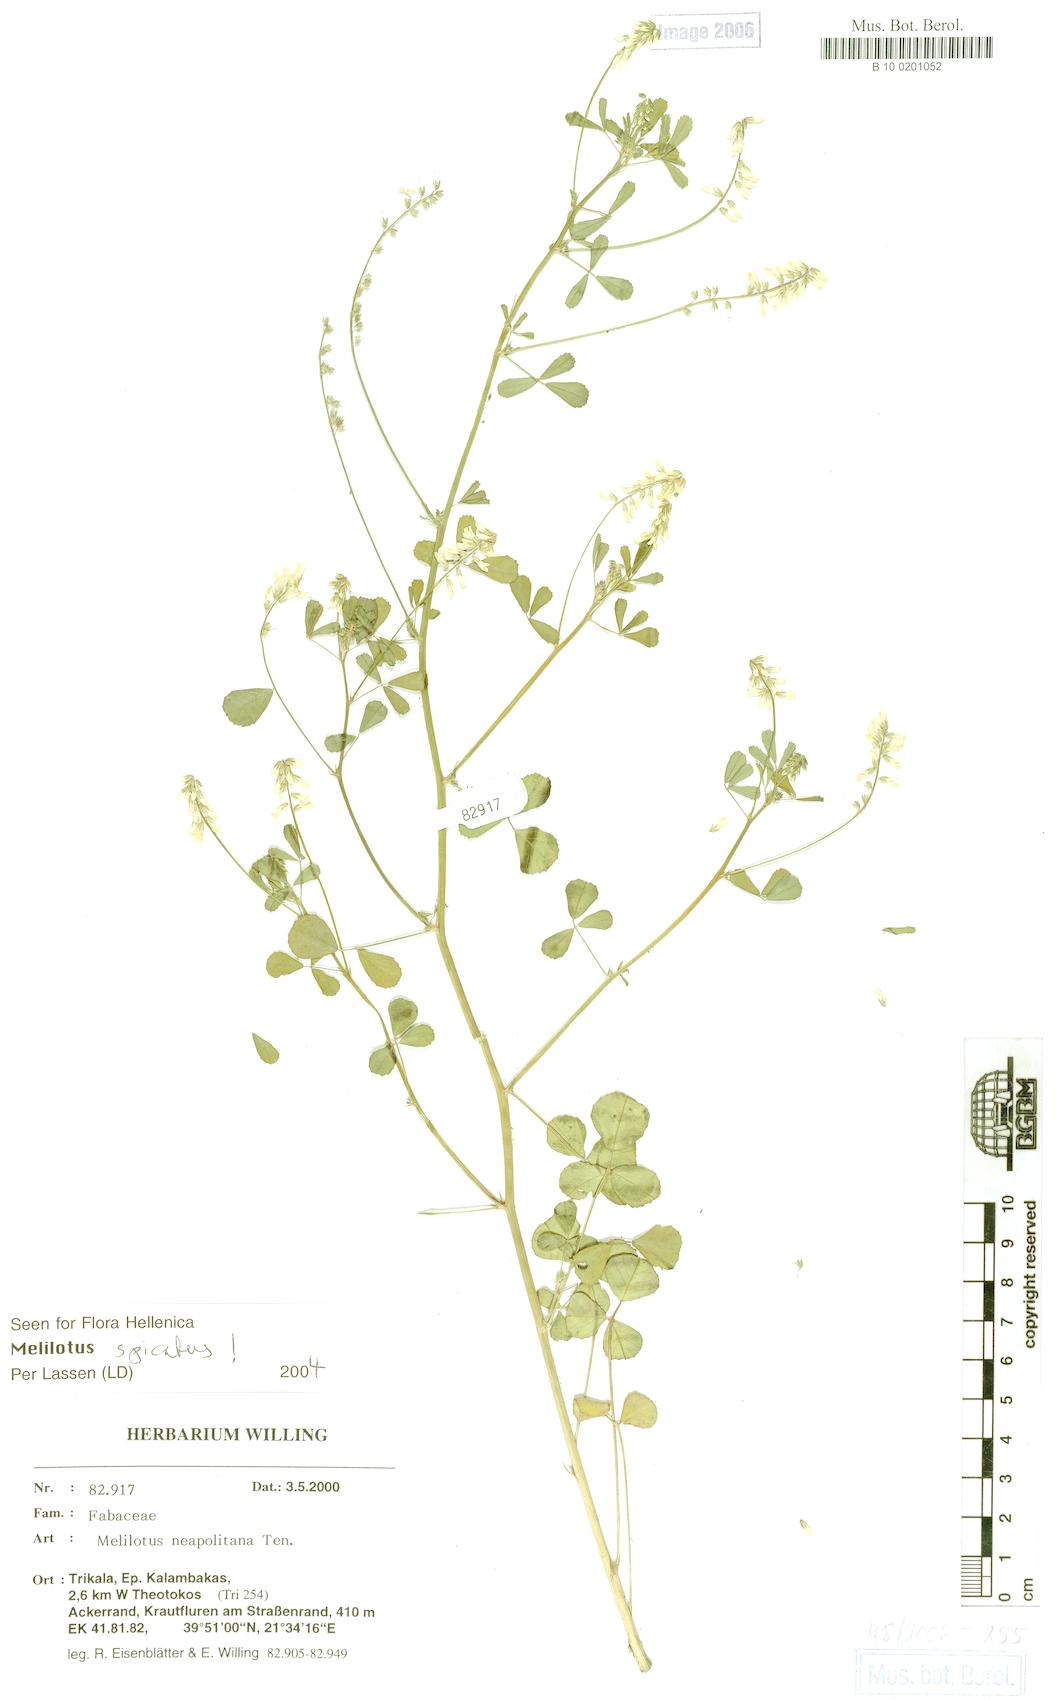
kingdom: Plantae
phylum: Tracheophyta
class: Magnoliopsida
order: Fabales
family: Fabaceae
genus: Melilotus
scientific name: Melilotus neapolitanus
